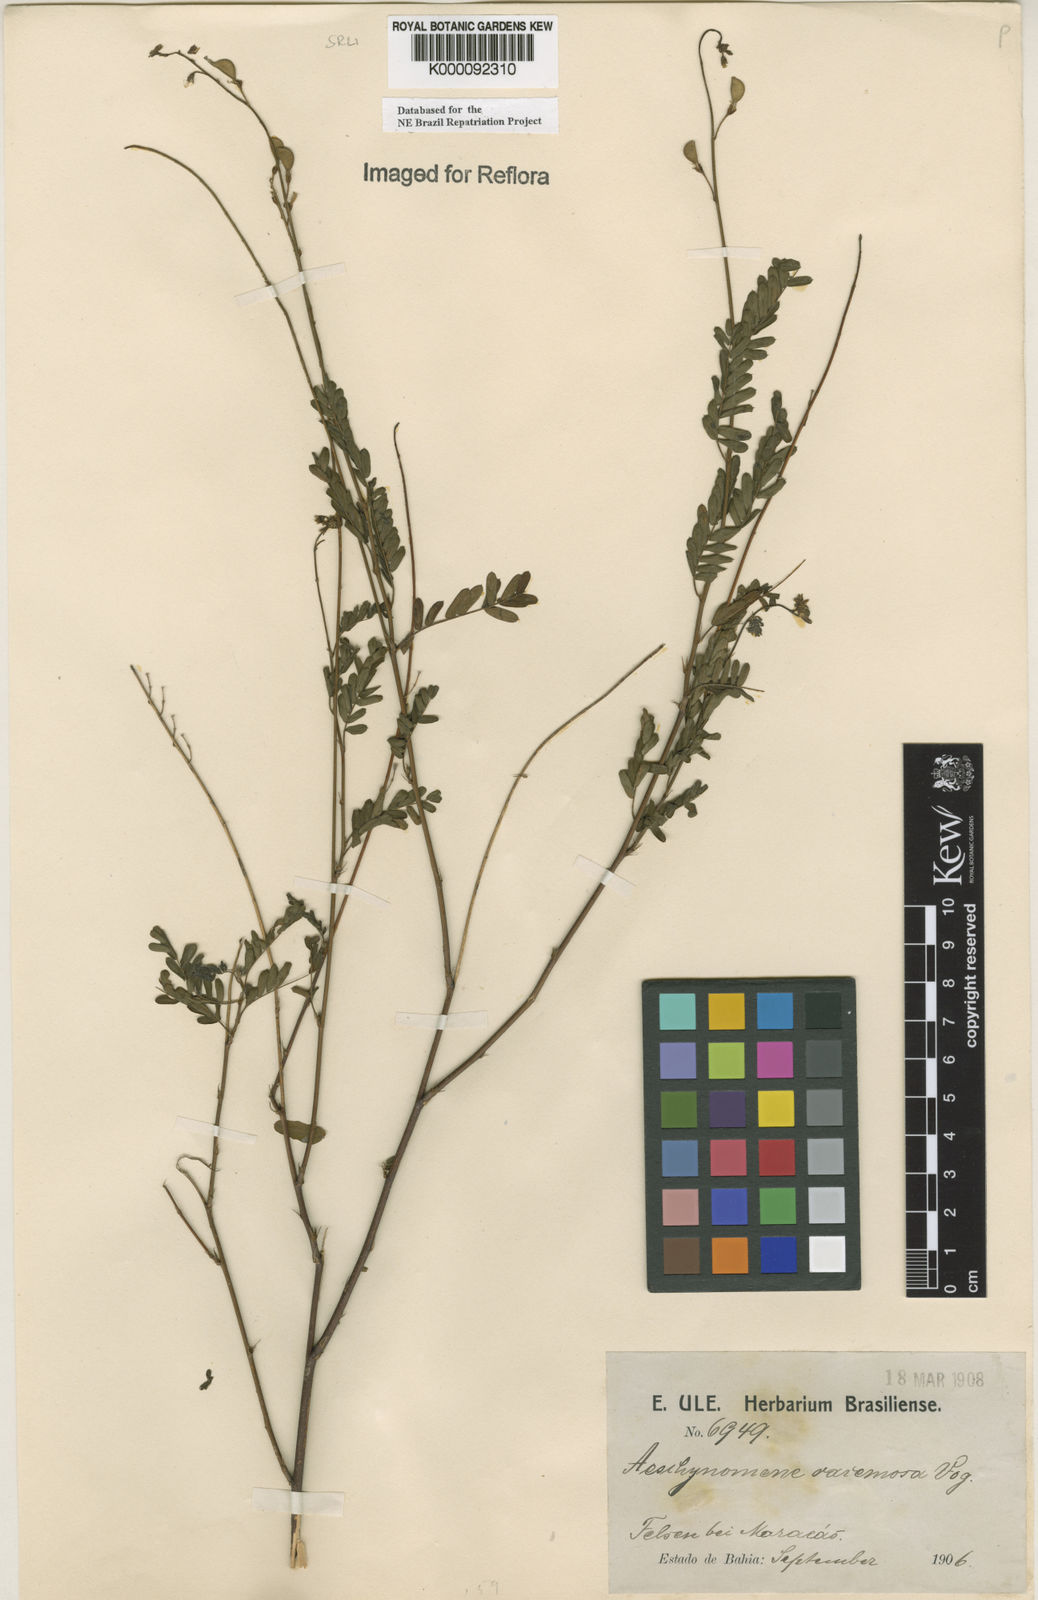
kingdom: Plantae
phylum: Tracheophyta
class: Magnoliopsida
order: Fabales
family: Fabaceae
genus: Ctenodon
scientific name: Ctenodon racemosus
